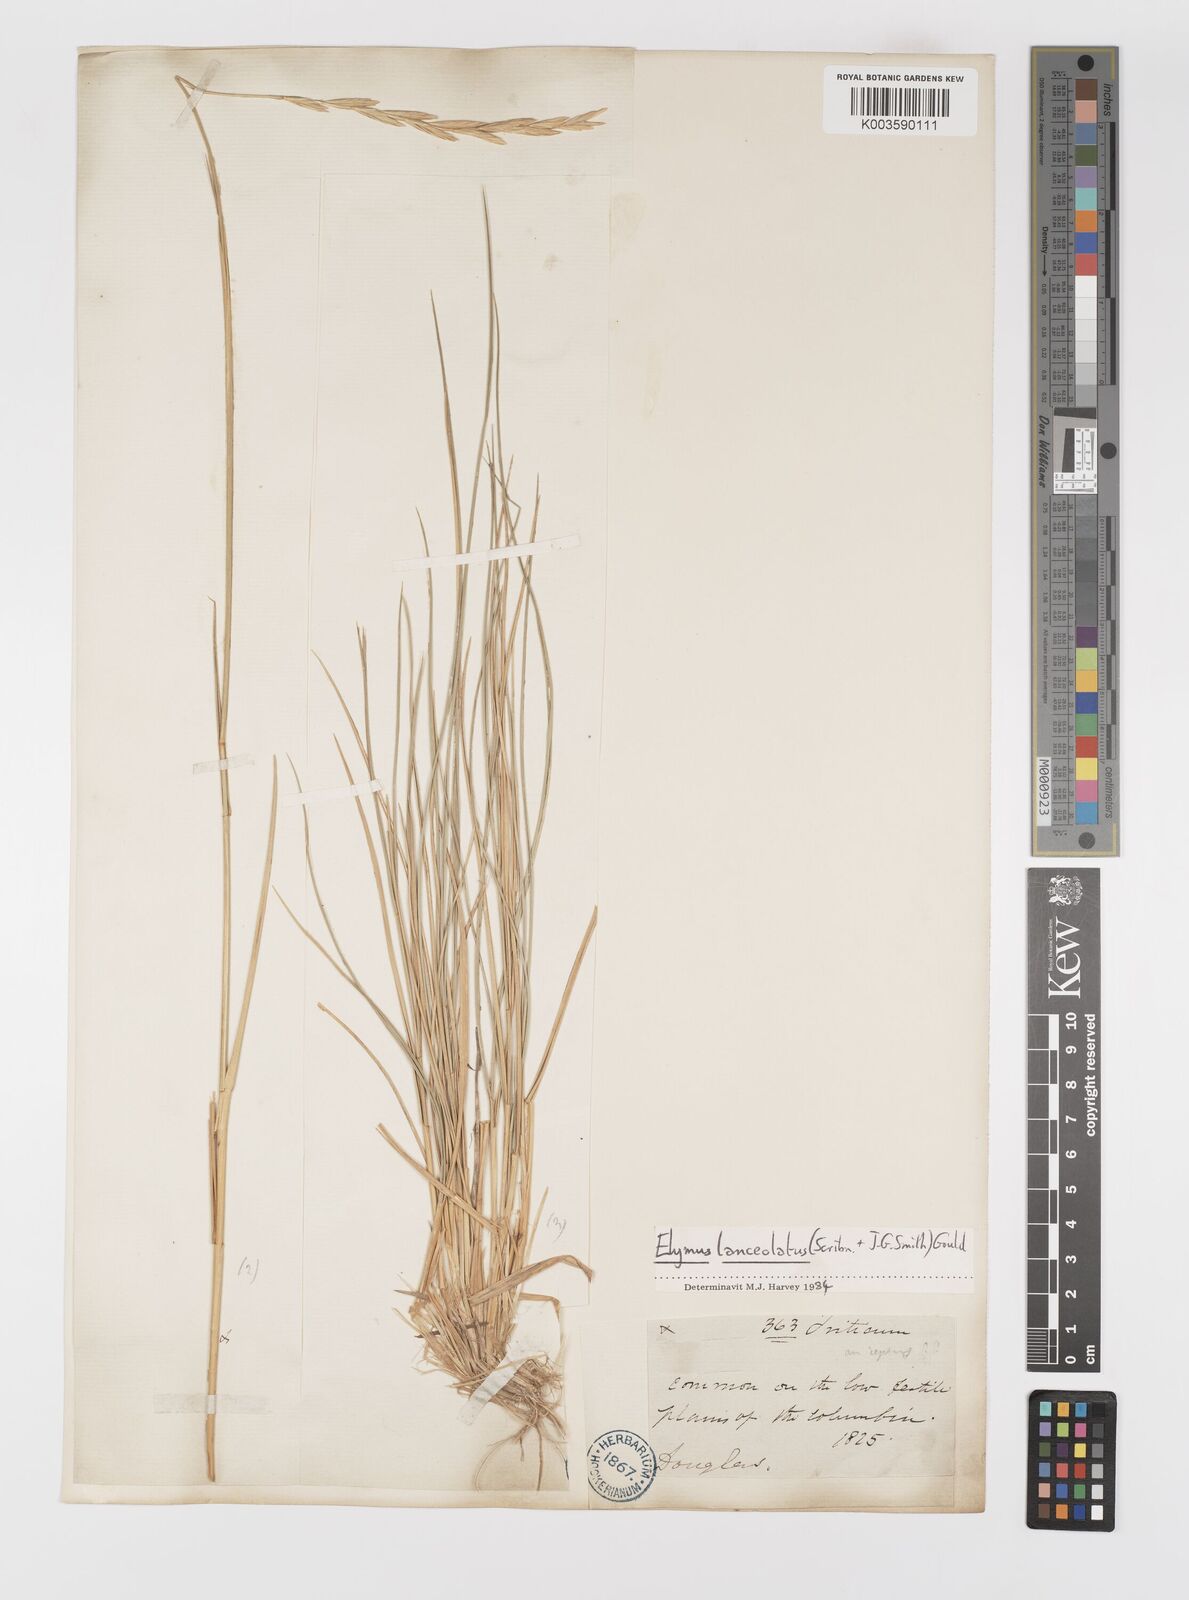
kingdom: Plantae
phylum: Tracheophyta
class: Liliopsida
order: Poales
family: Poaceae
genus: Elymus
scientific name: Elymus repens
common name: Quackgrass
